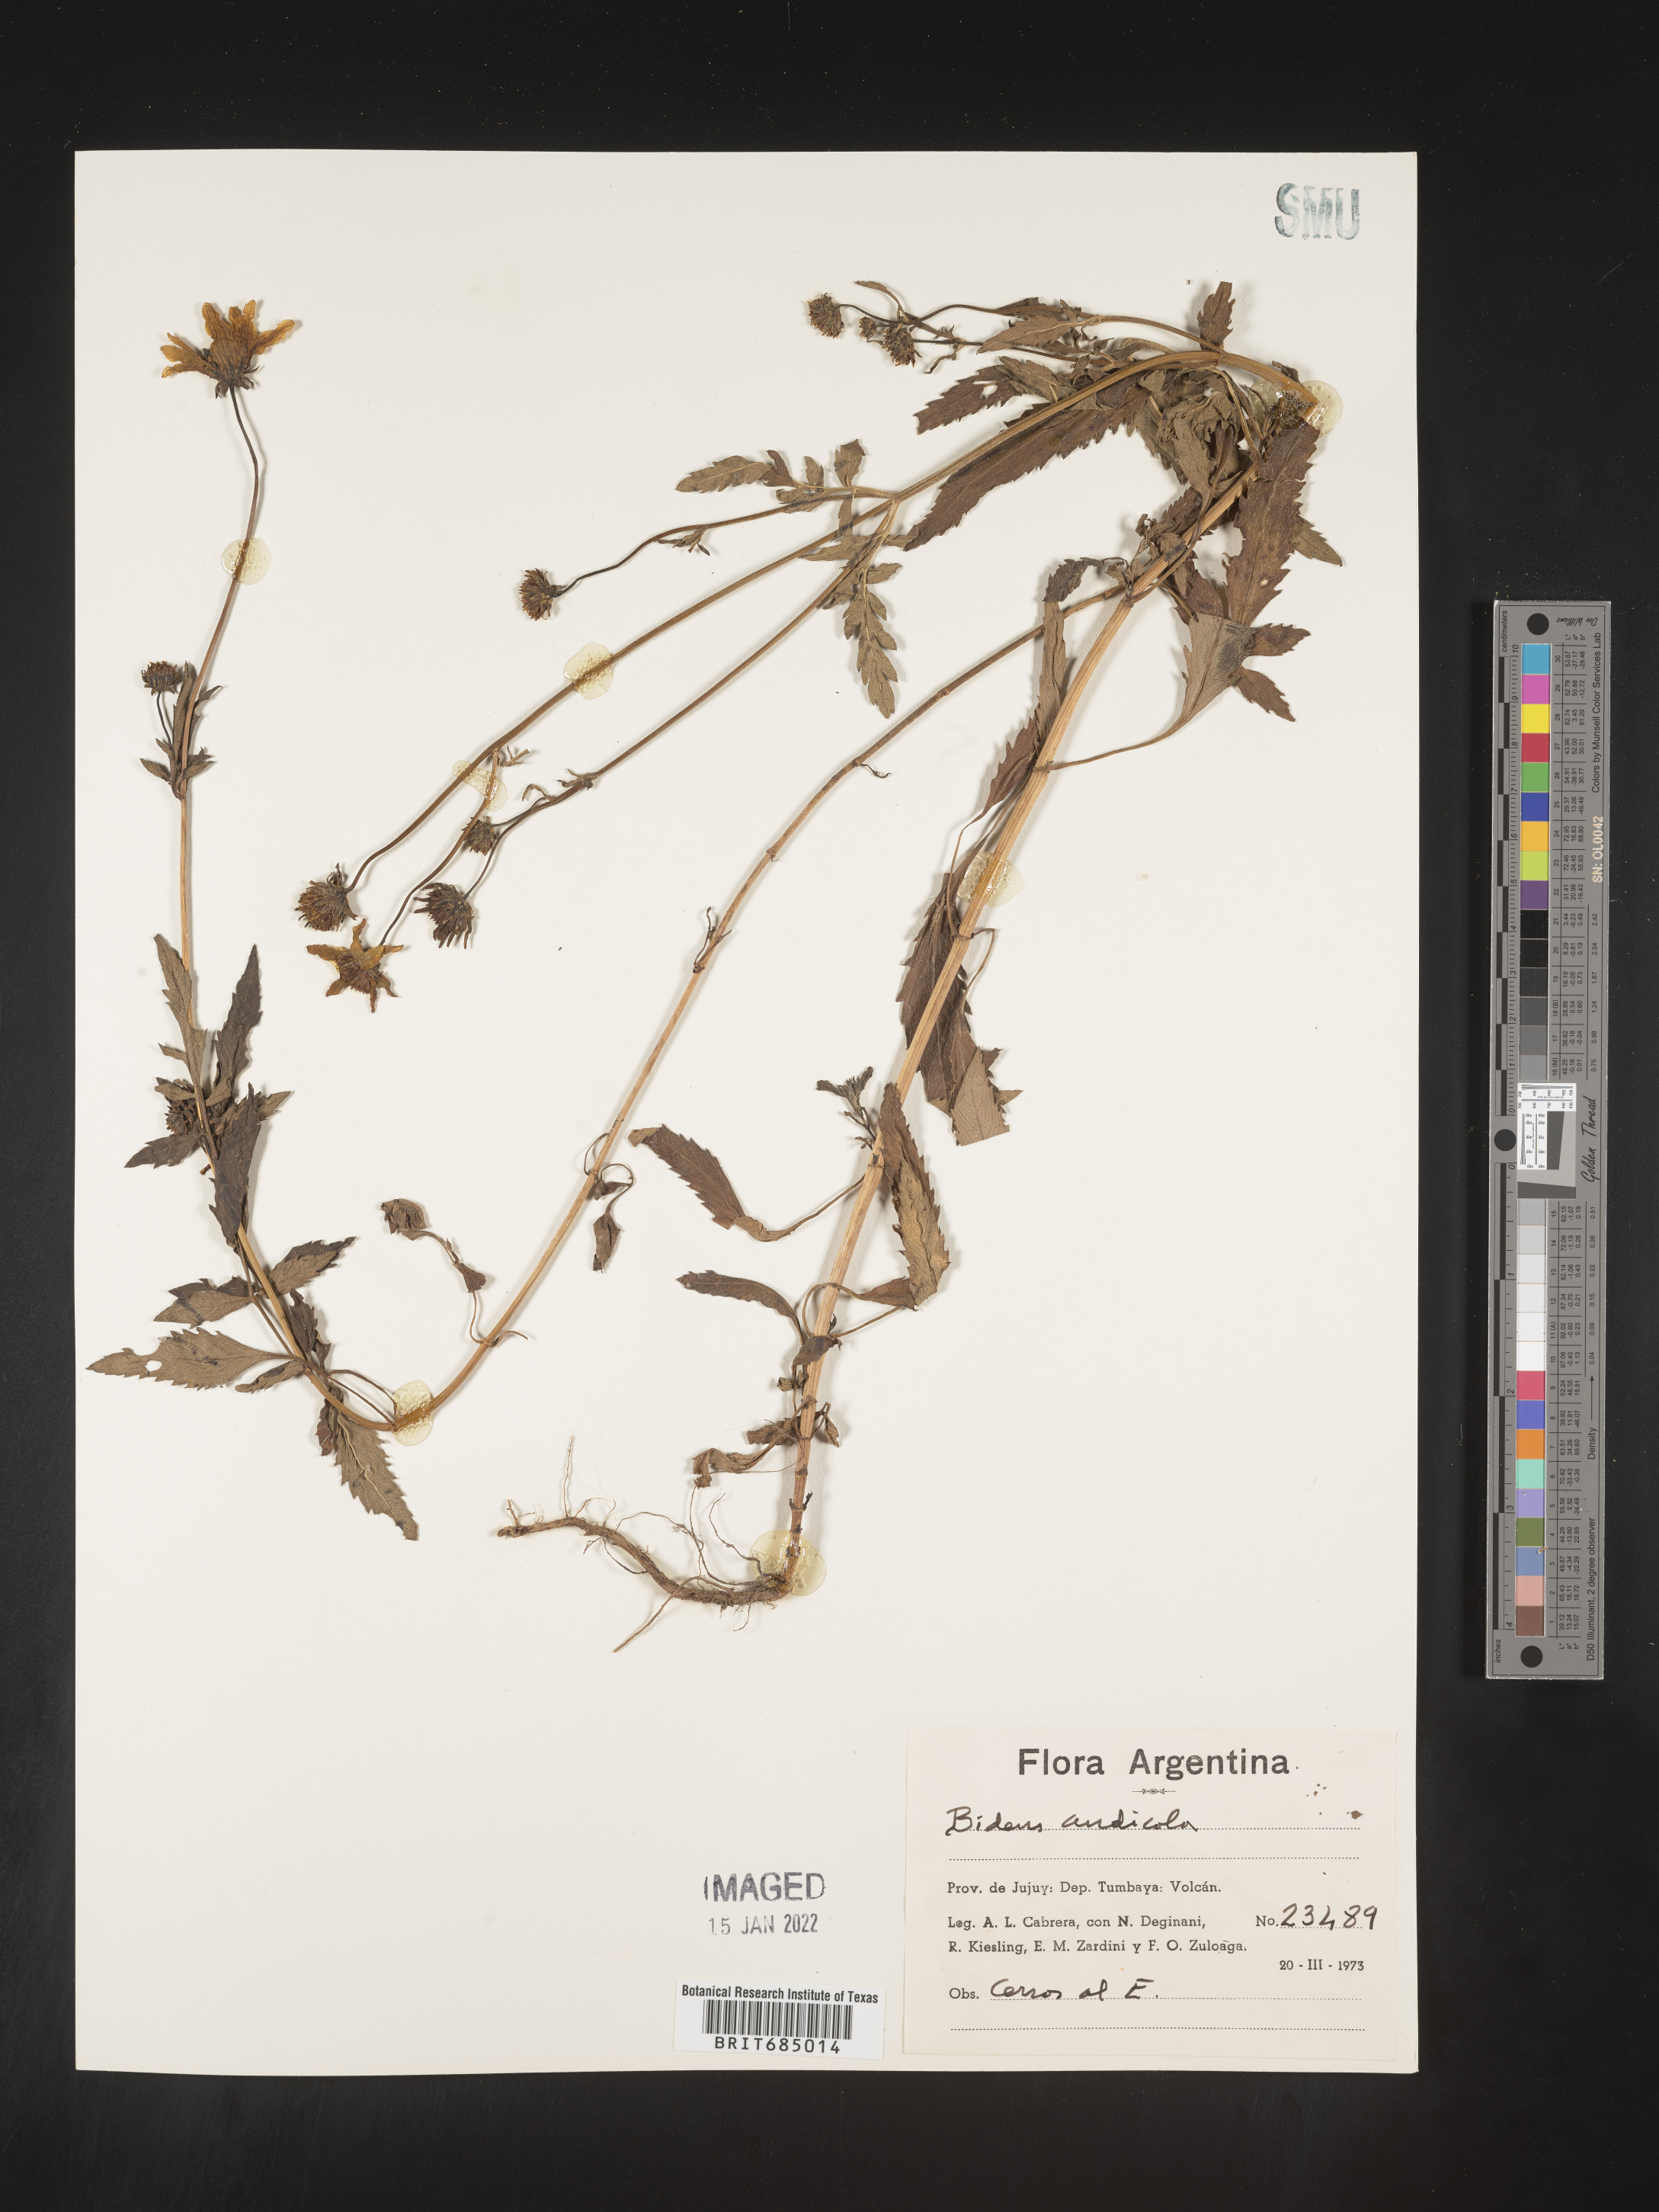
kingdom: Plantae
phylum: Tracheophyta
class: Magnoliopsida
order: Asterales
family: Asteraceae
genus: Bidens
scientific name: Bidens
